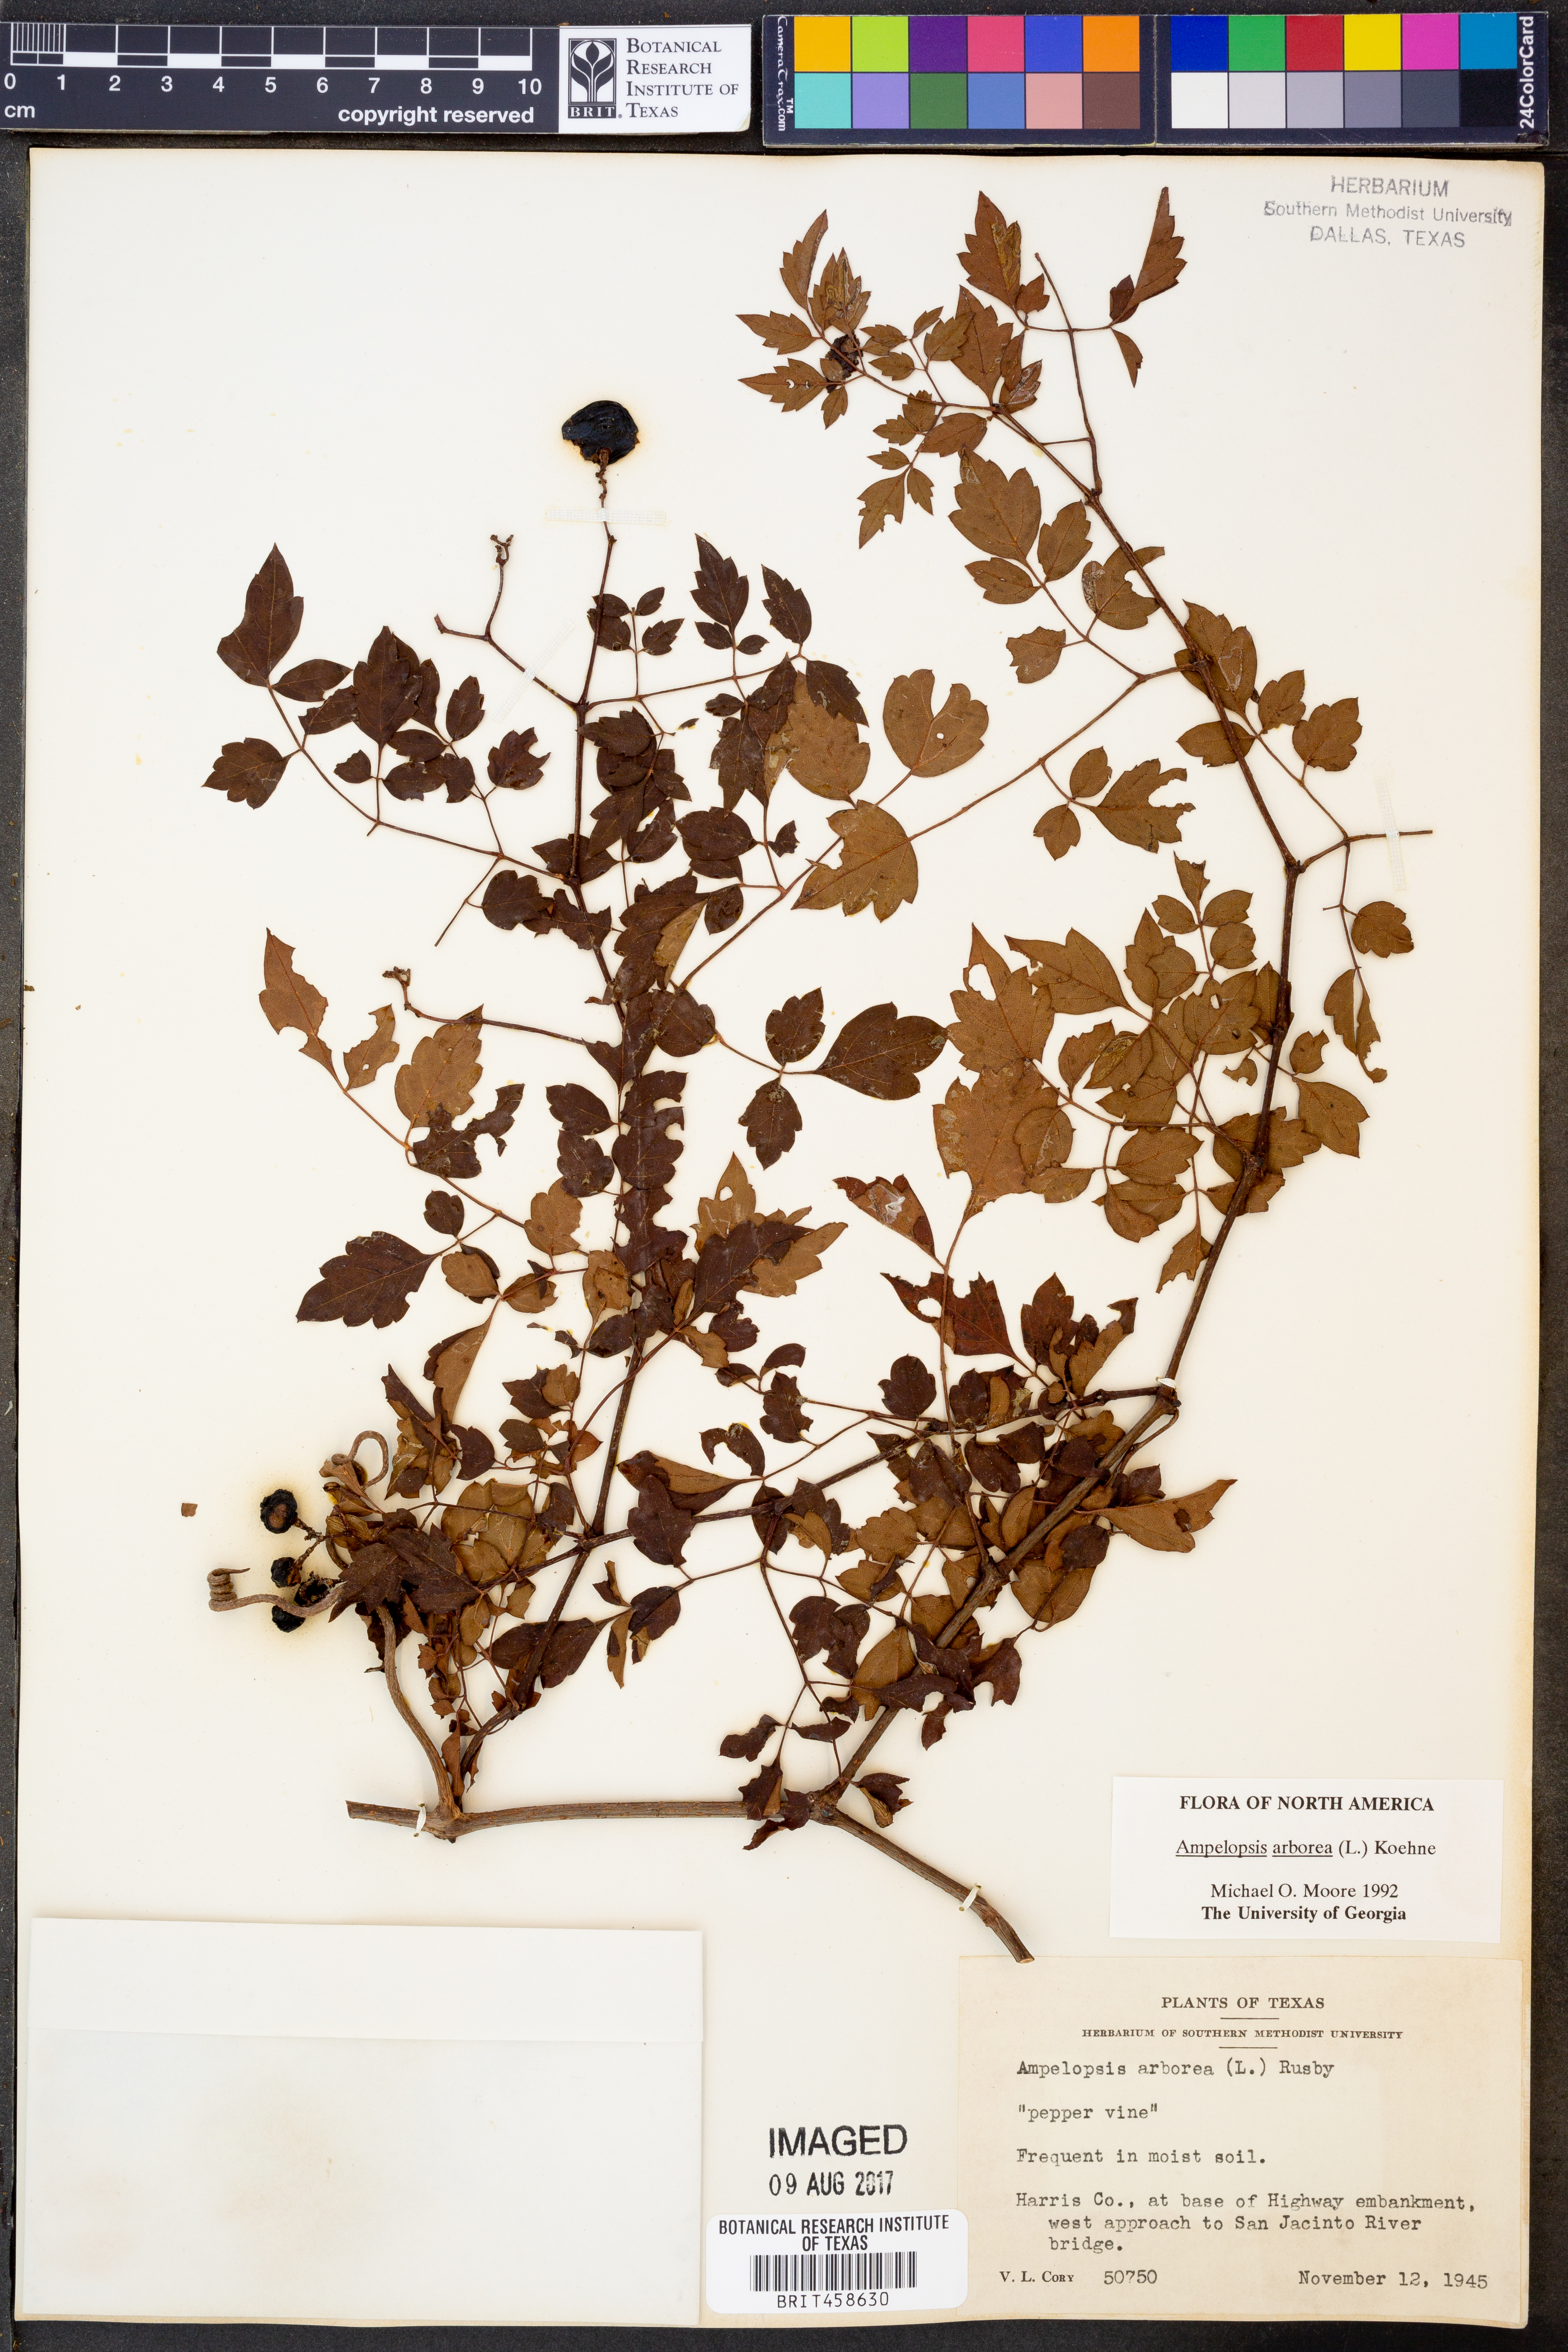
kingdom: Plantae
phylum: Tracheophyta
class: Magnoliopsida
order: Vitales
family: Vitaceae
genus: Nekemias
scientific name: Nekemias arborea
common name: Peppervine
